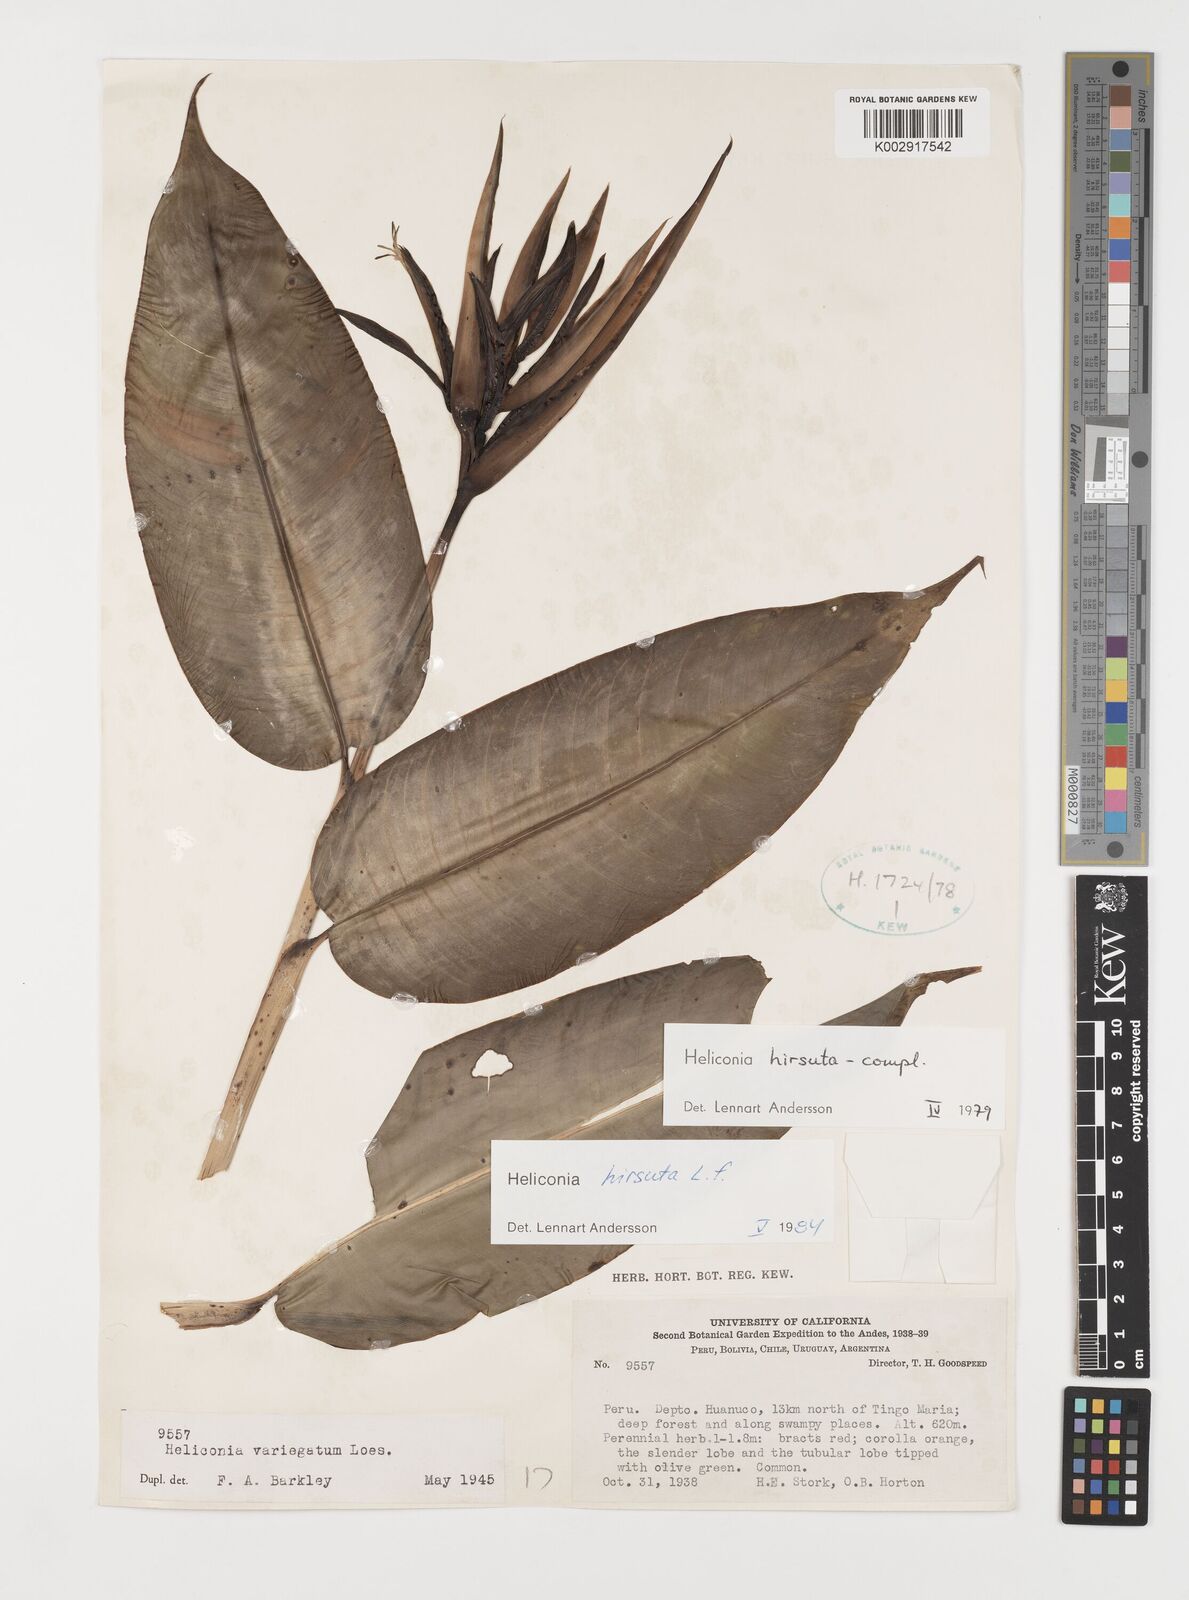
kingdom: Plantae
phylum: Tracheophyta
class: Liliopsida
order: Zingiberales
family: Heliconiaceae
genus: Heliconia
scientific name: Heliconia hirsuta
